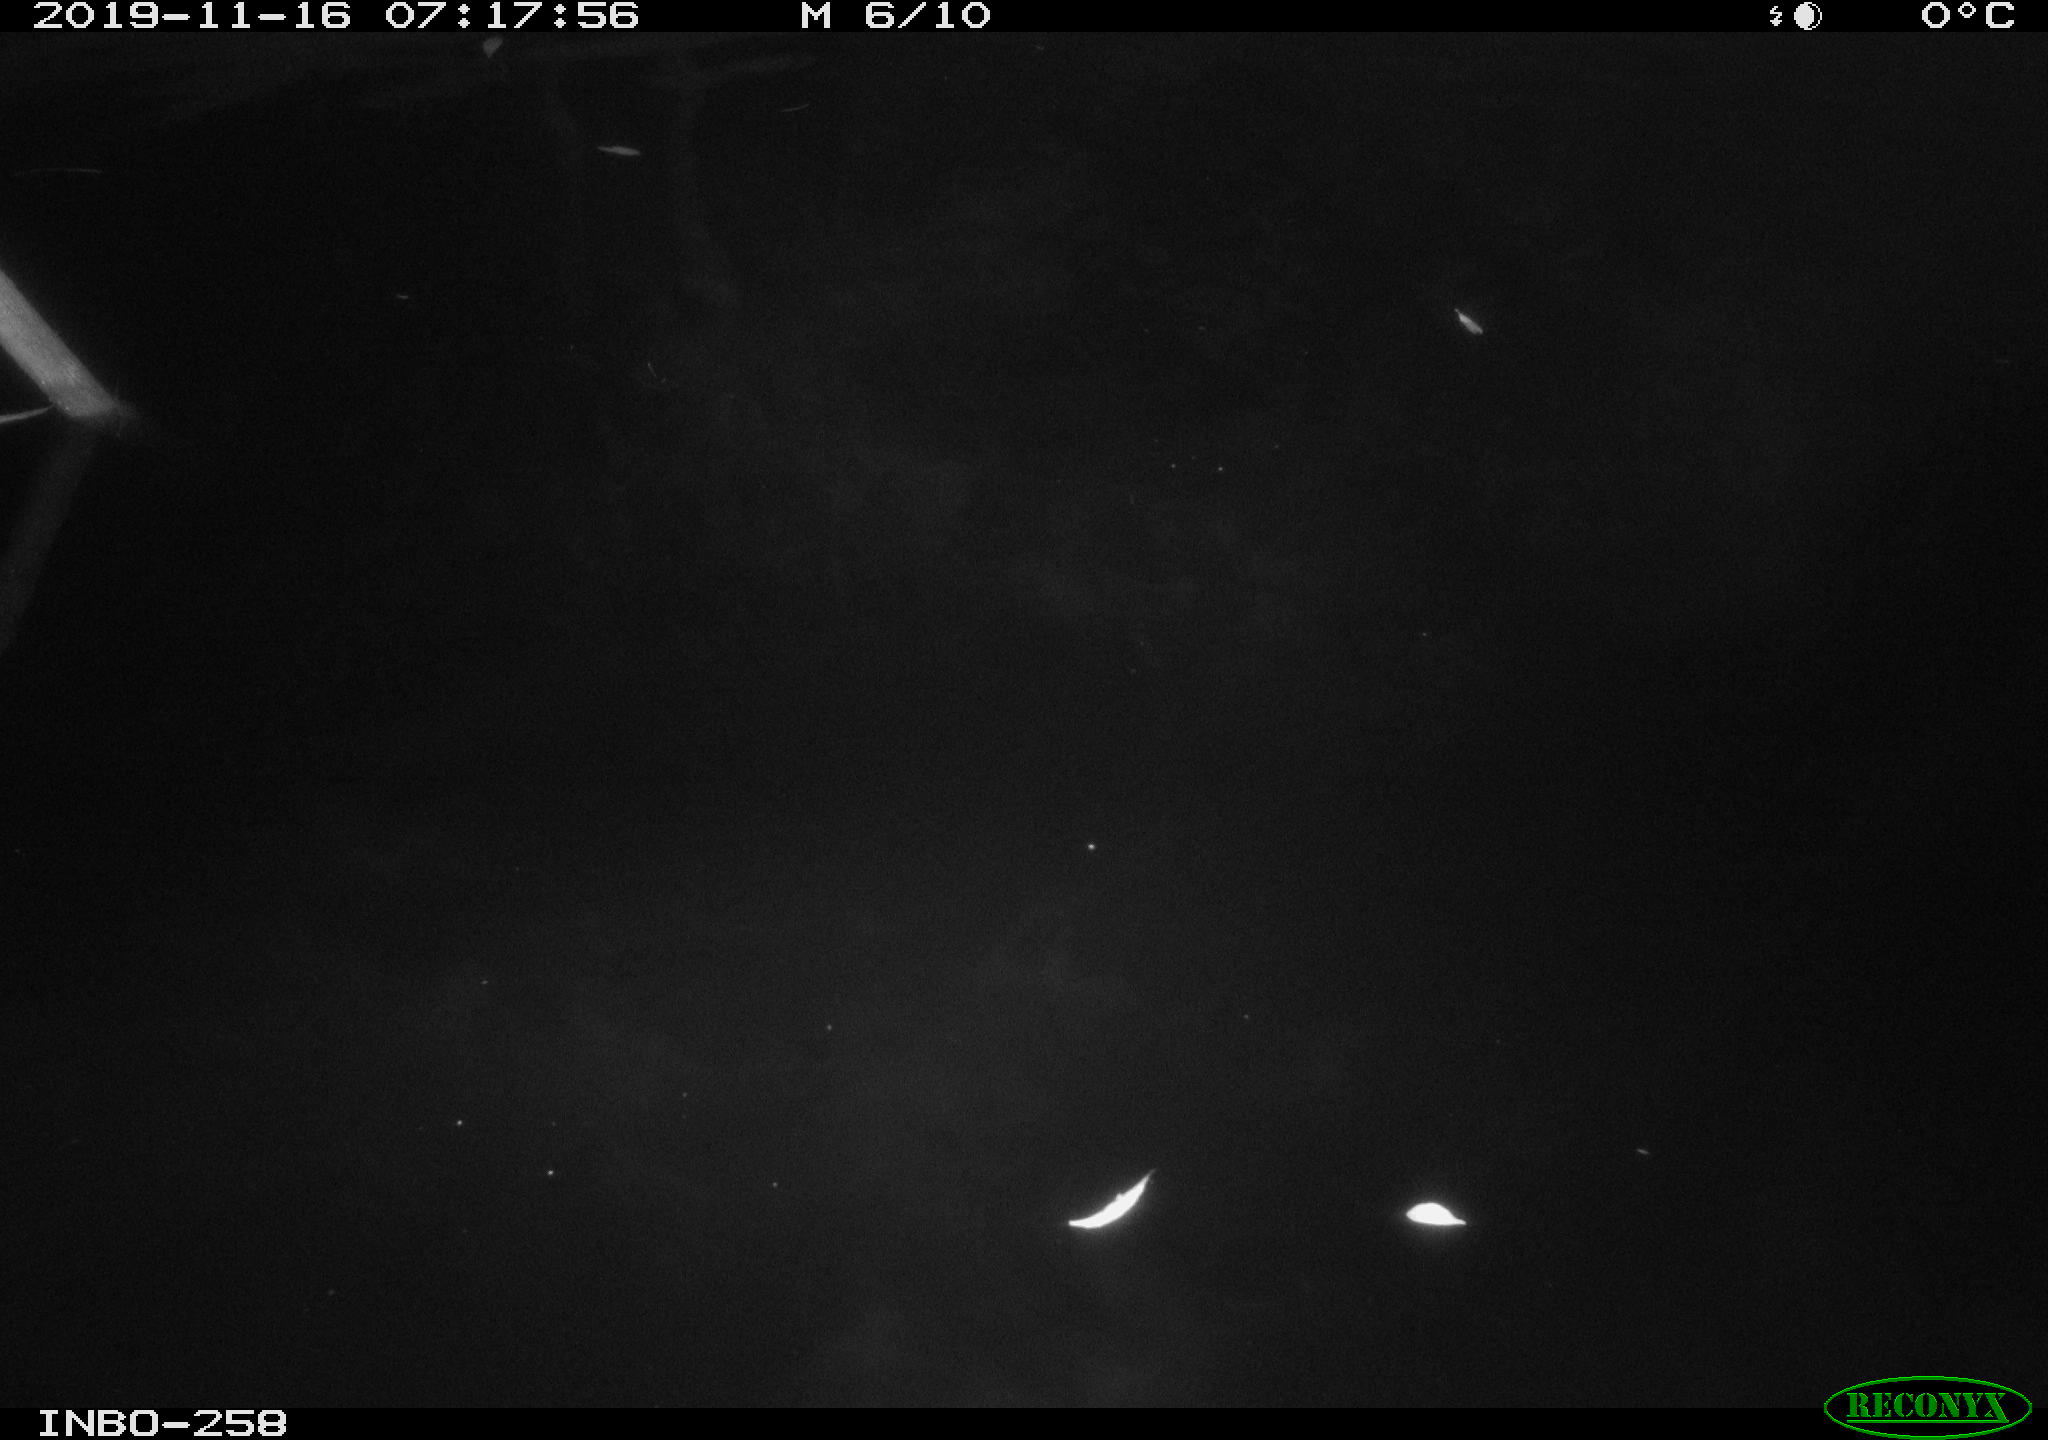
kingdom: Animalia
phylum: Chordata
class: Aves
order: Anseriformes
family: Anatidae
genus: Anas
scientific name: Anas platyrhynchos
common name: Mallard
